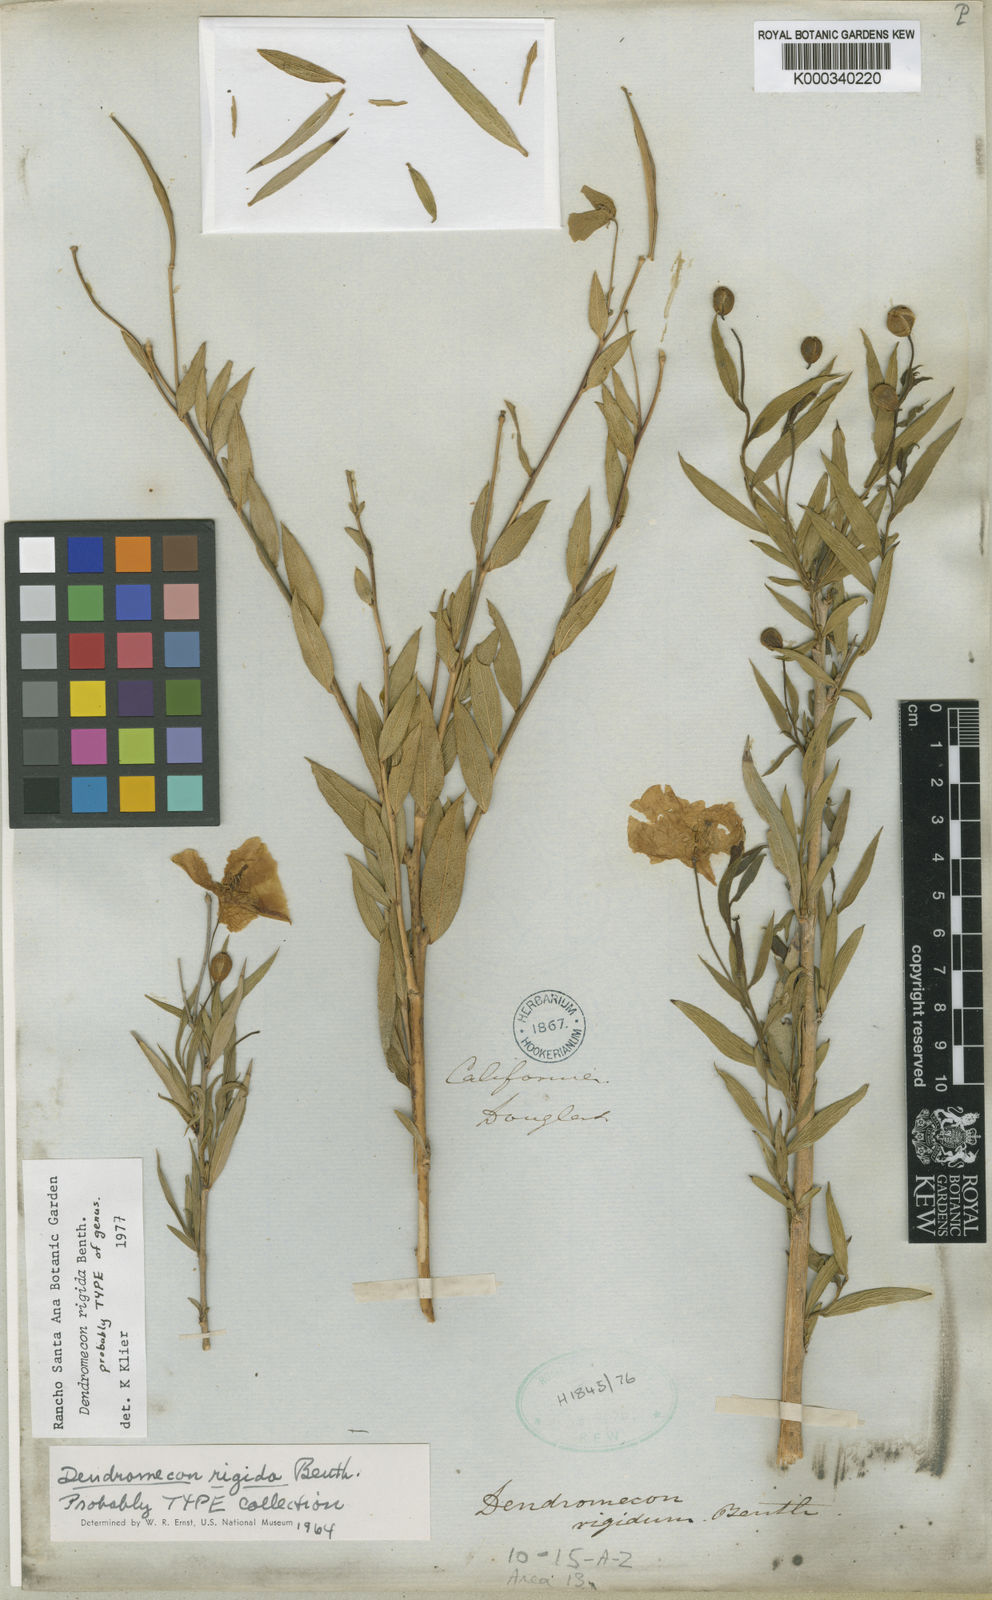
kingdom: Plantae
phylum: Tracheophyta
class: Magnoliopsida
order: Ranunculales
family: Papaveraceae
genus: Dendromecon
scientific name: Dendromecon rigida
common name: Tree poppy
